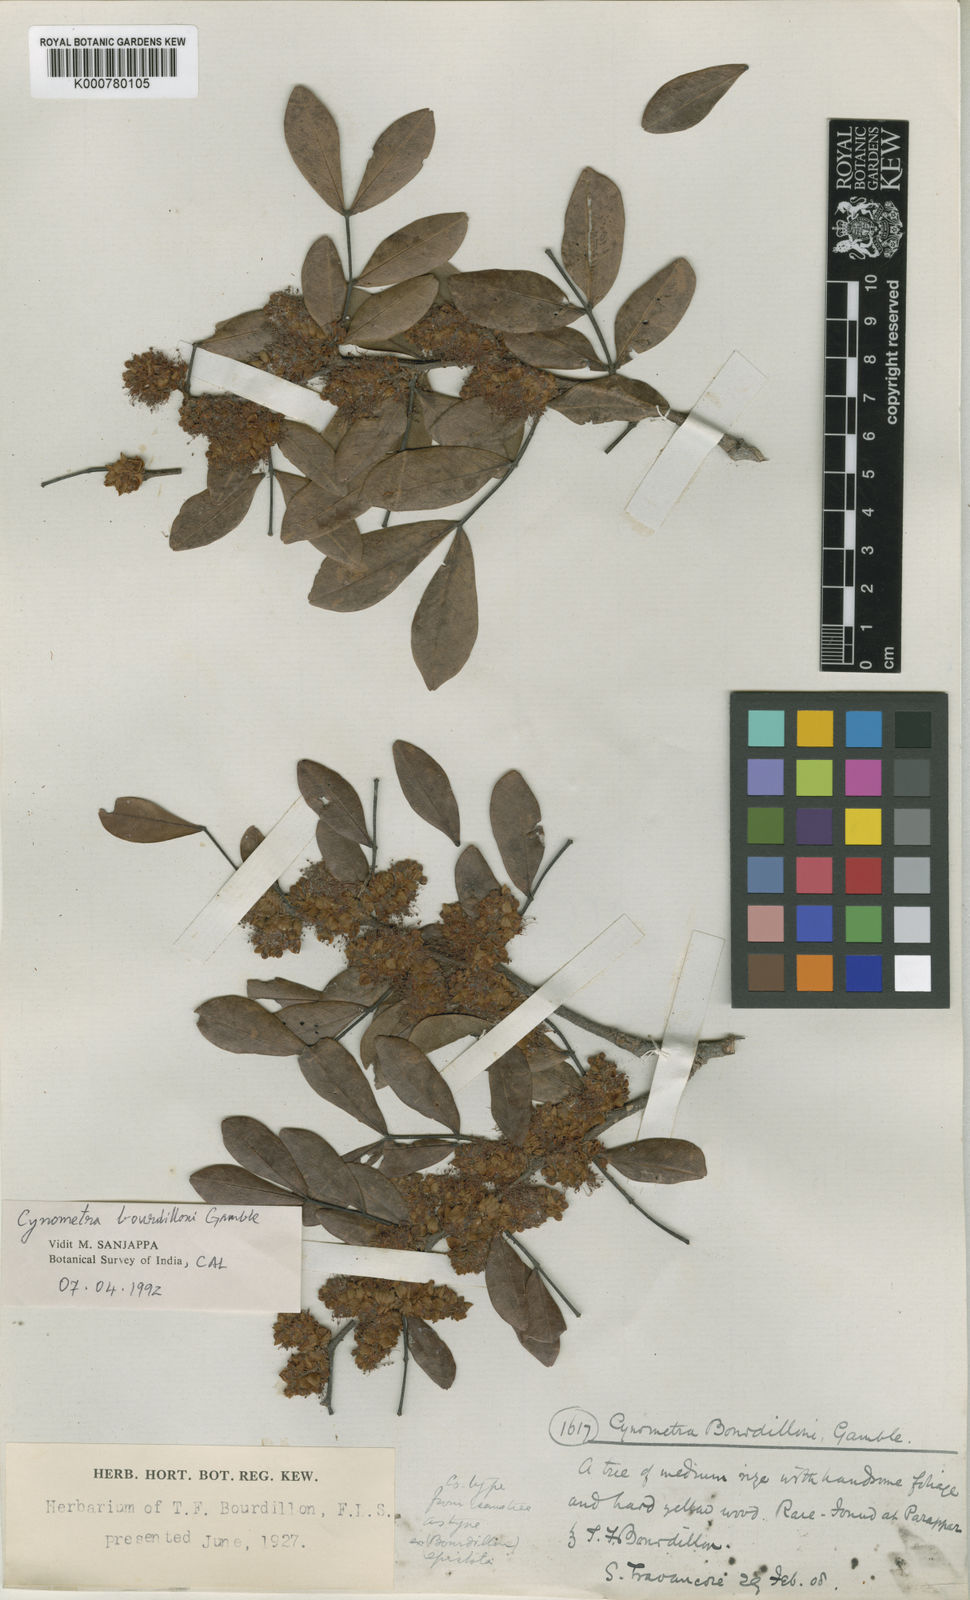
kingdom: Plantae
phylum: Tracheophyta
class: Magnoliopsida
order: Fabales
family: Fabaceae
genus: Cynometra
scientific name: Cynometra bourdillonii
